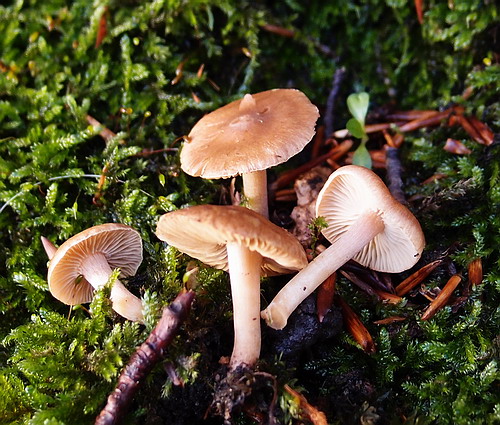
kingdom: Fungi
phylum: Basidiomycota
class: Agaricomycetes
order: Agaricales
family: Inocybaceae
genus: Inocybe
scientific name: Inocybe castanea
